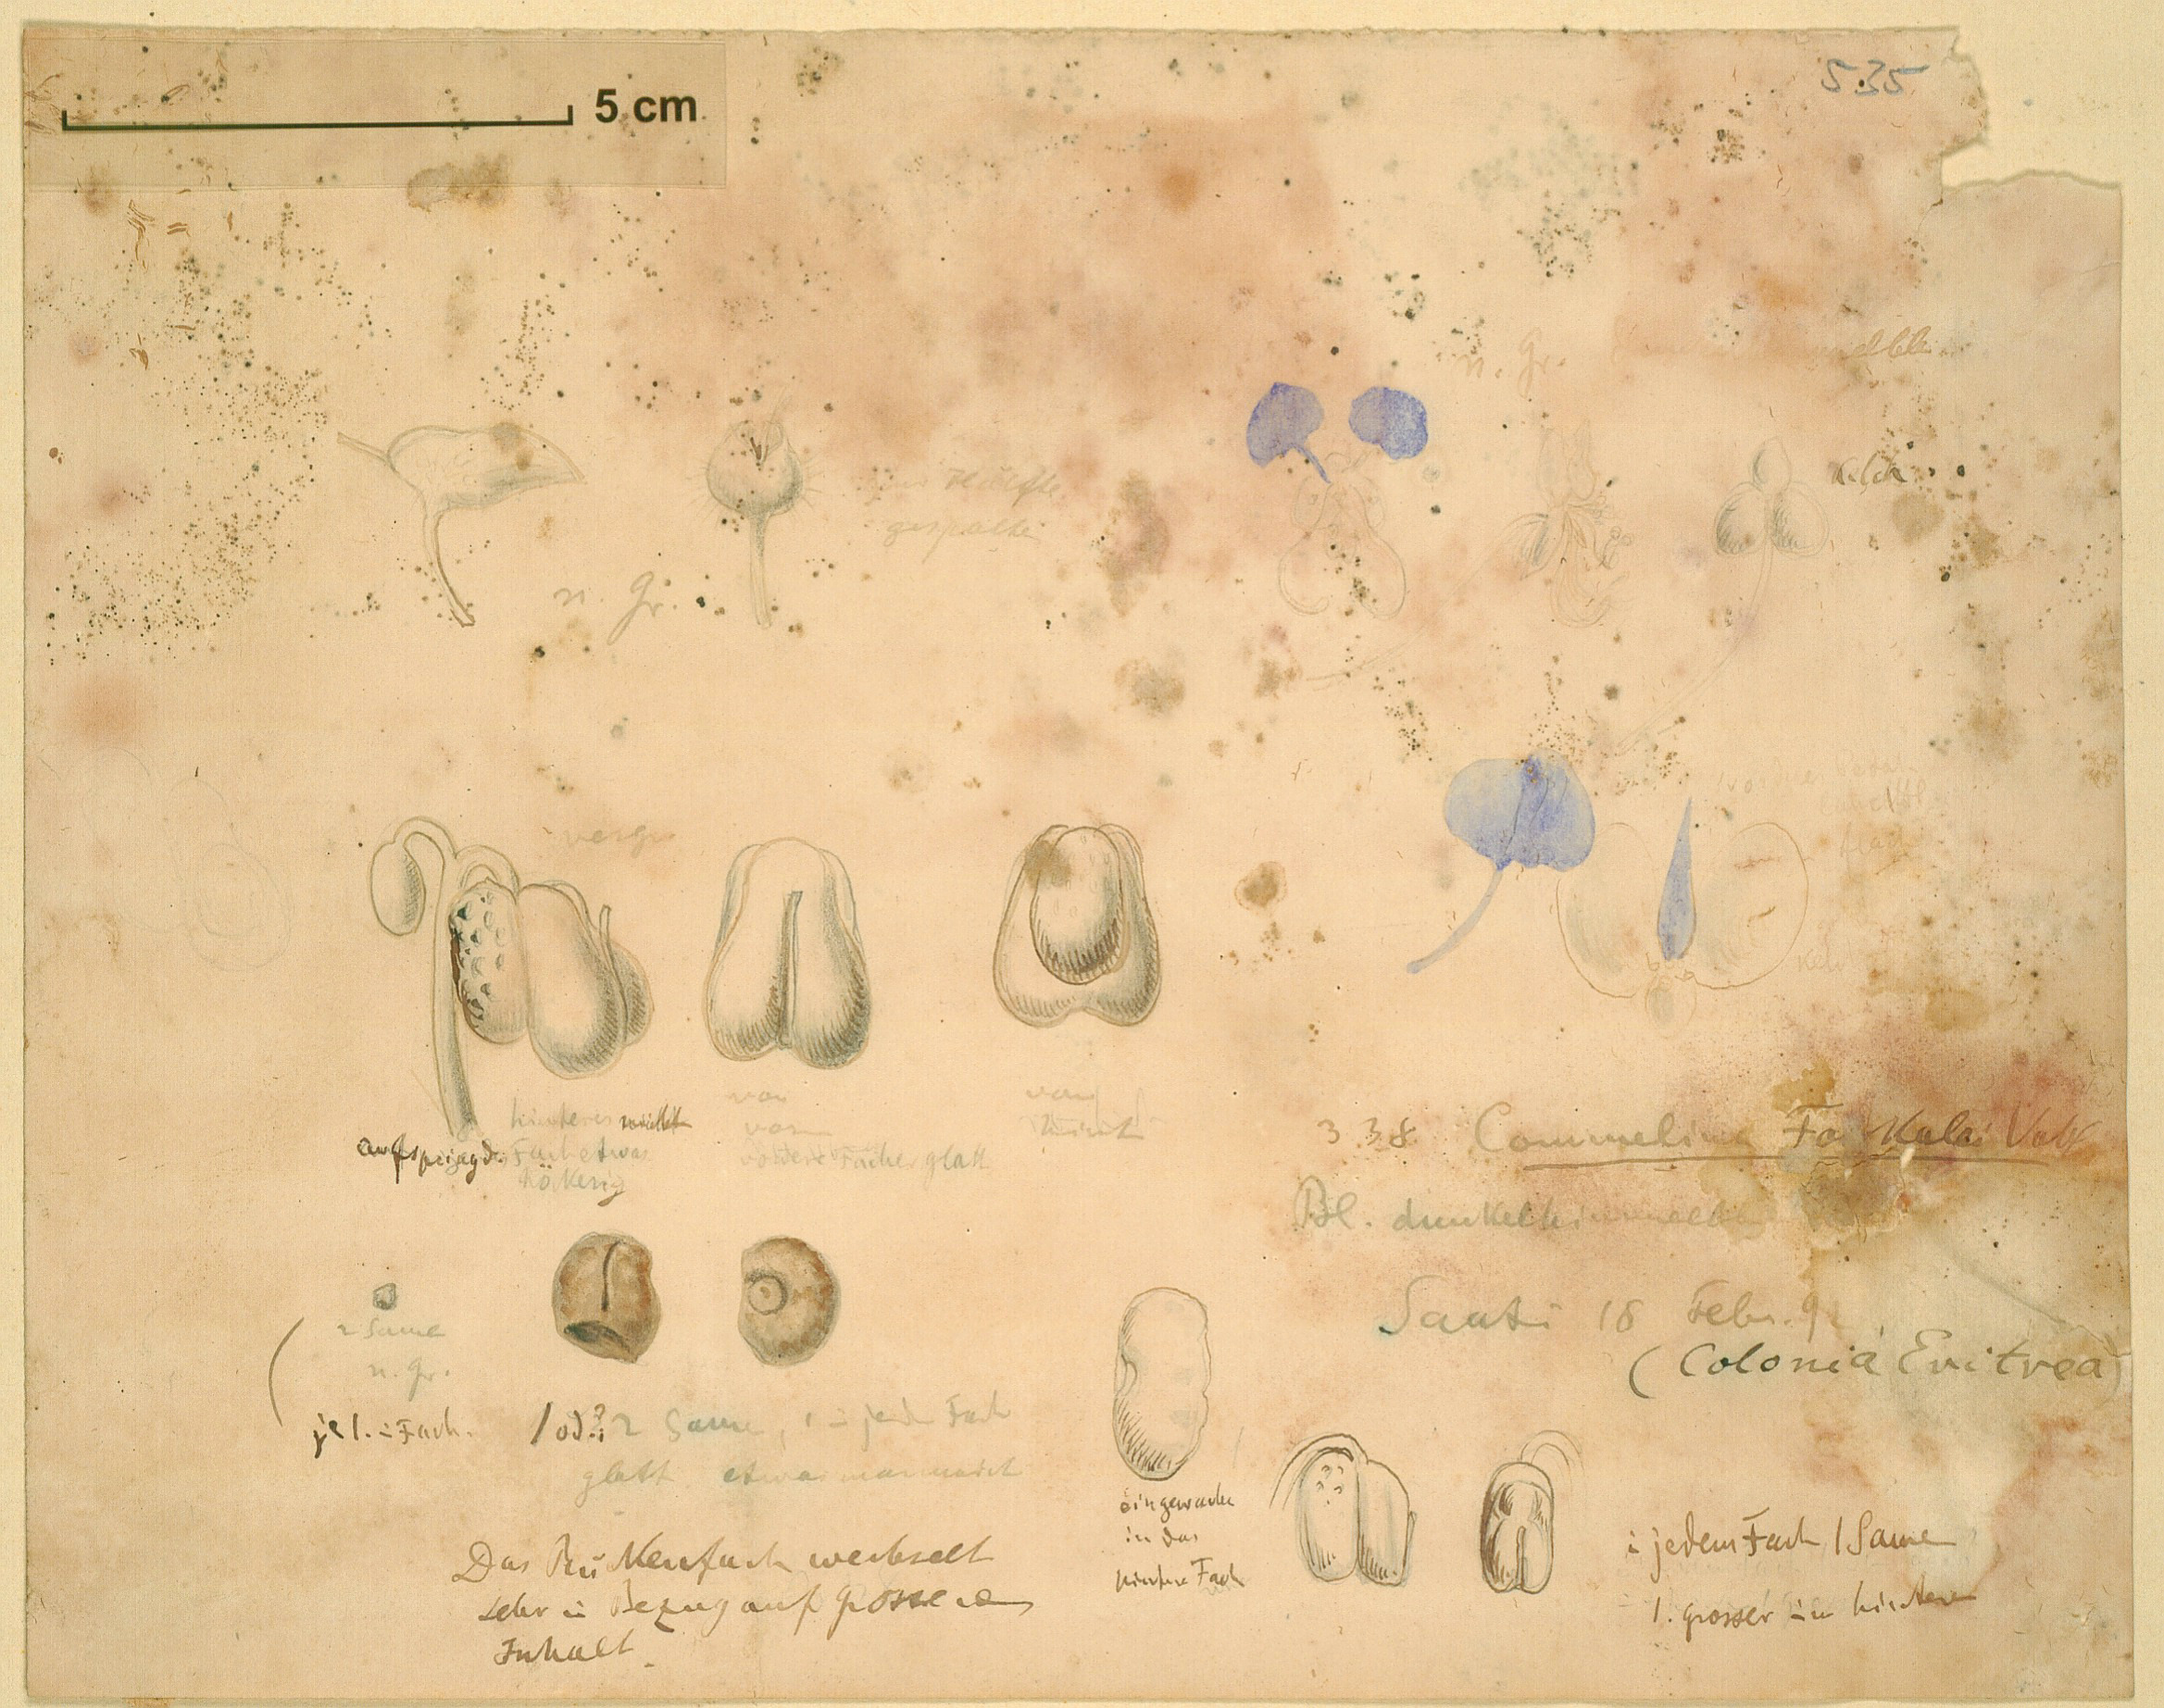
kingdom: Plantae
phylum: Tracheophyta
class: Liliopsida
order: Commelinales
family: Commelinaceae
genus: Commelina
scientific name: Commelina forskaolii
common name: Rat's ear
